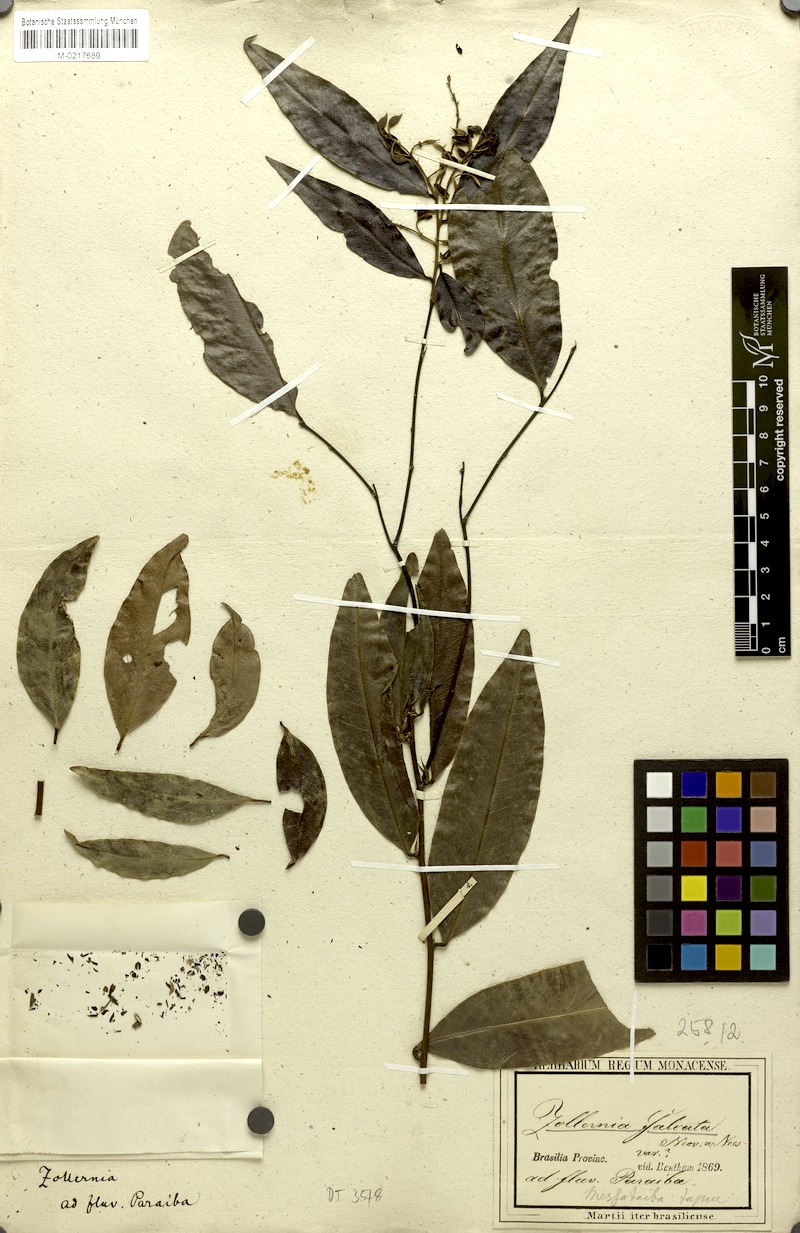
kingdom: Plantae
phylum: Tracheophyta
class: Magnoliopsida
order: Fabales
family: Fabaceae
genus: Zollernia
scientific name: Zollernia glabra
